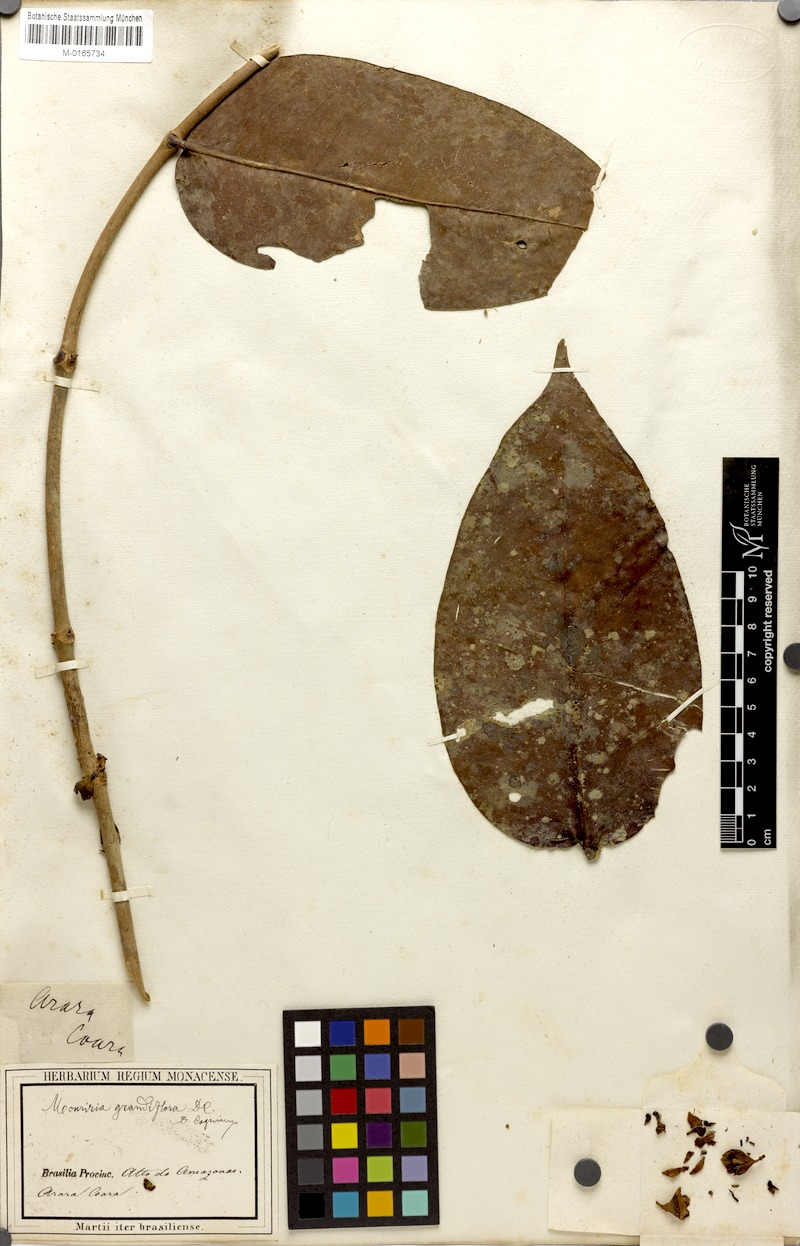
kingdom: Plantae
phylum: Tracheophyta
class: Magnoliopsida
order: Myrtales
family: Melastomataceae
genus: Mouriri
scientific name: Mouriri grandiflora
